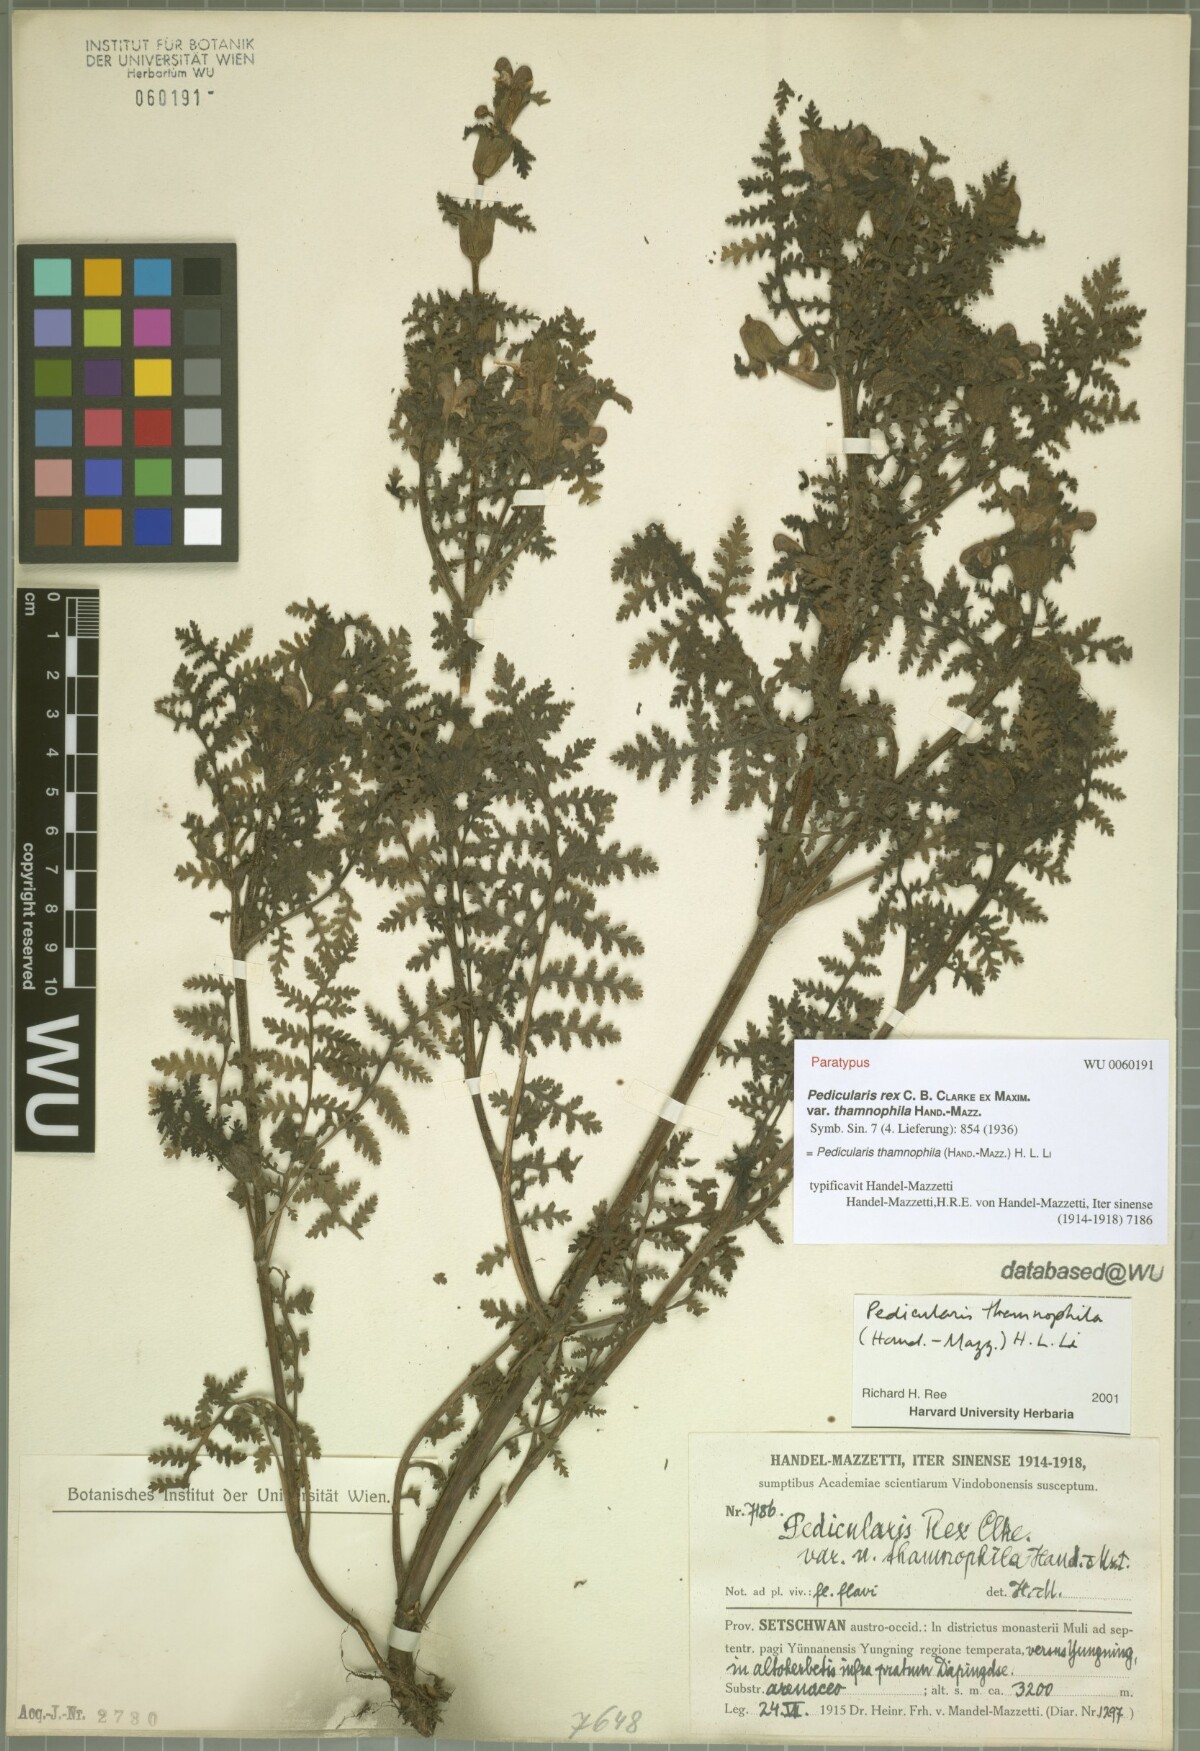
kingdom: Plantae
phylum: Tracheophyta
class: Magnoliopsida
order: Lamiales
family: Orobanchaceae
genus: Pedicularis
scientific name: Pedicularis thamnophila
